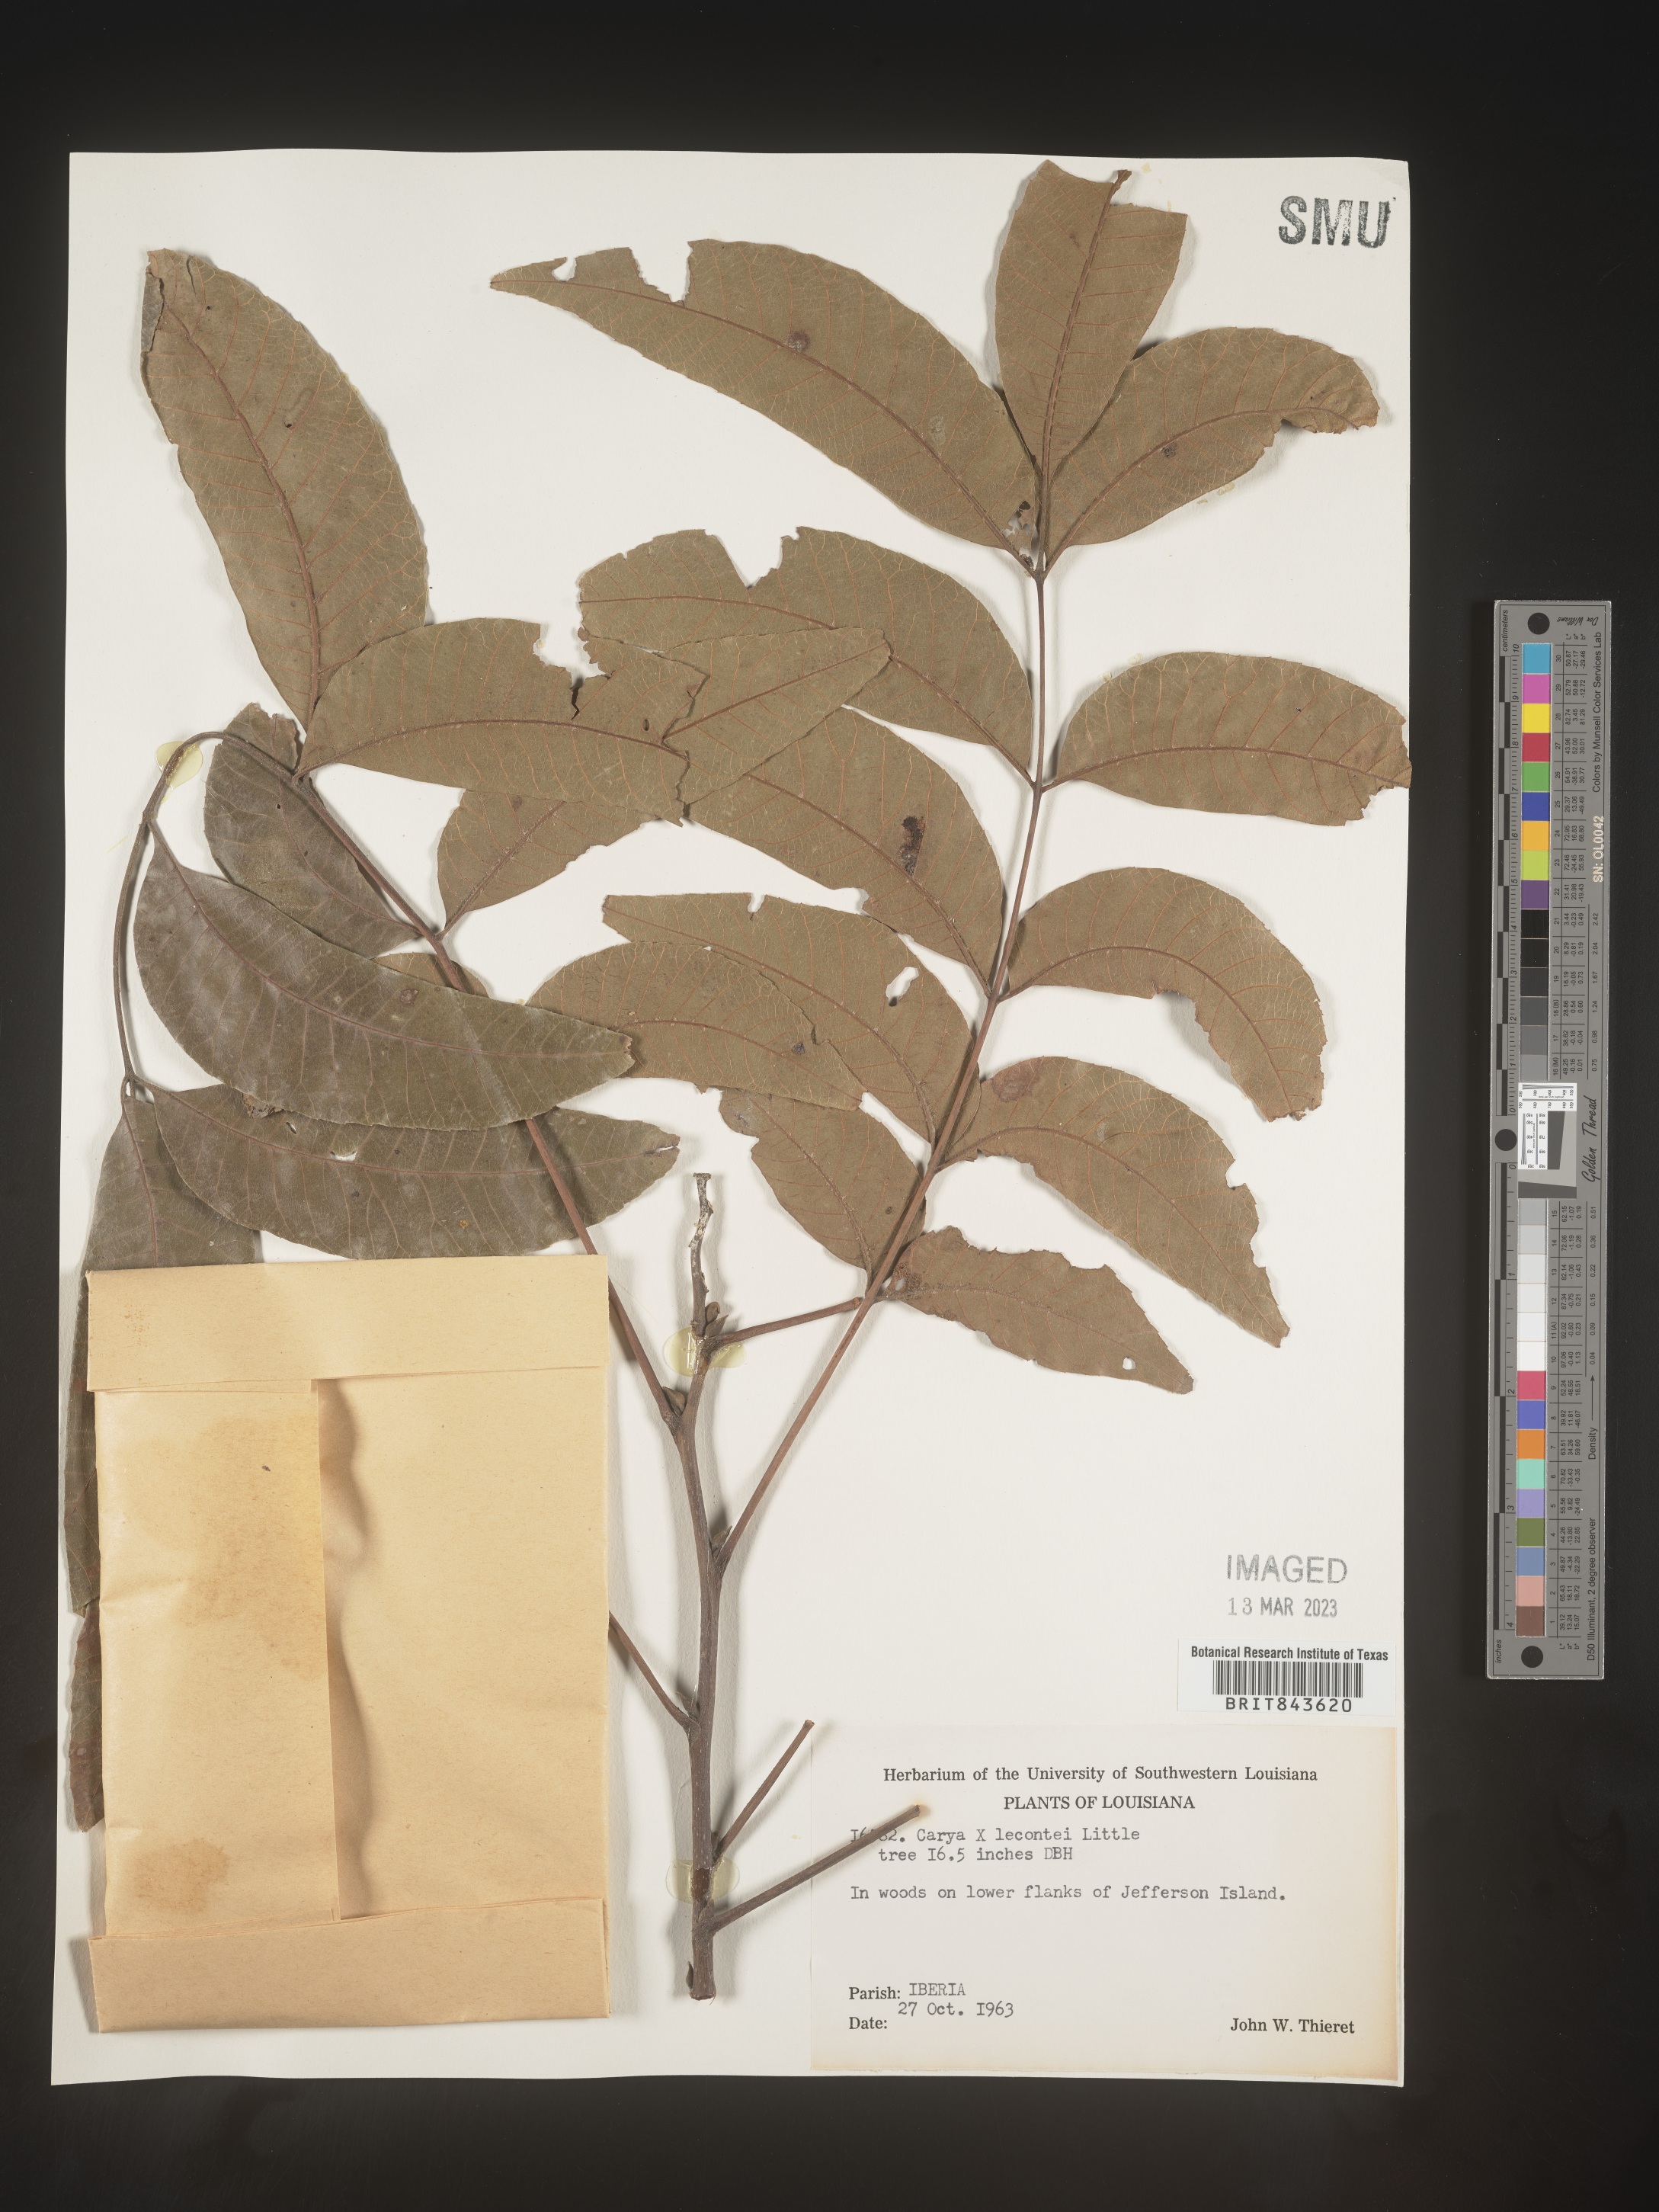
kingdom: Plantae
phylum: Tracheophyta
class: Magnoliopsida
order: Fagales
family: Juglandaceae
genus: Carya
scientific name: Carya
